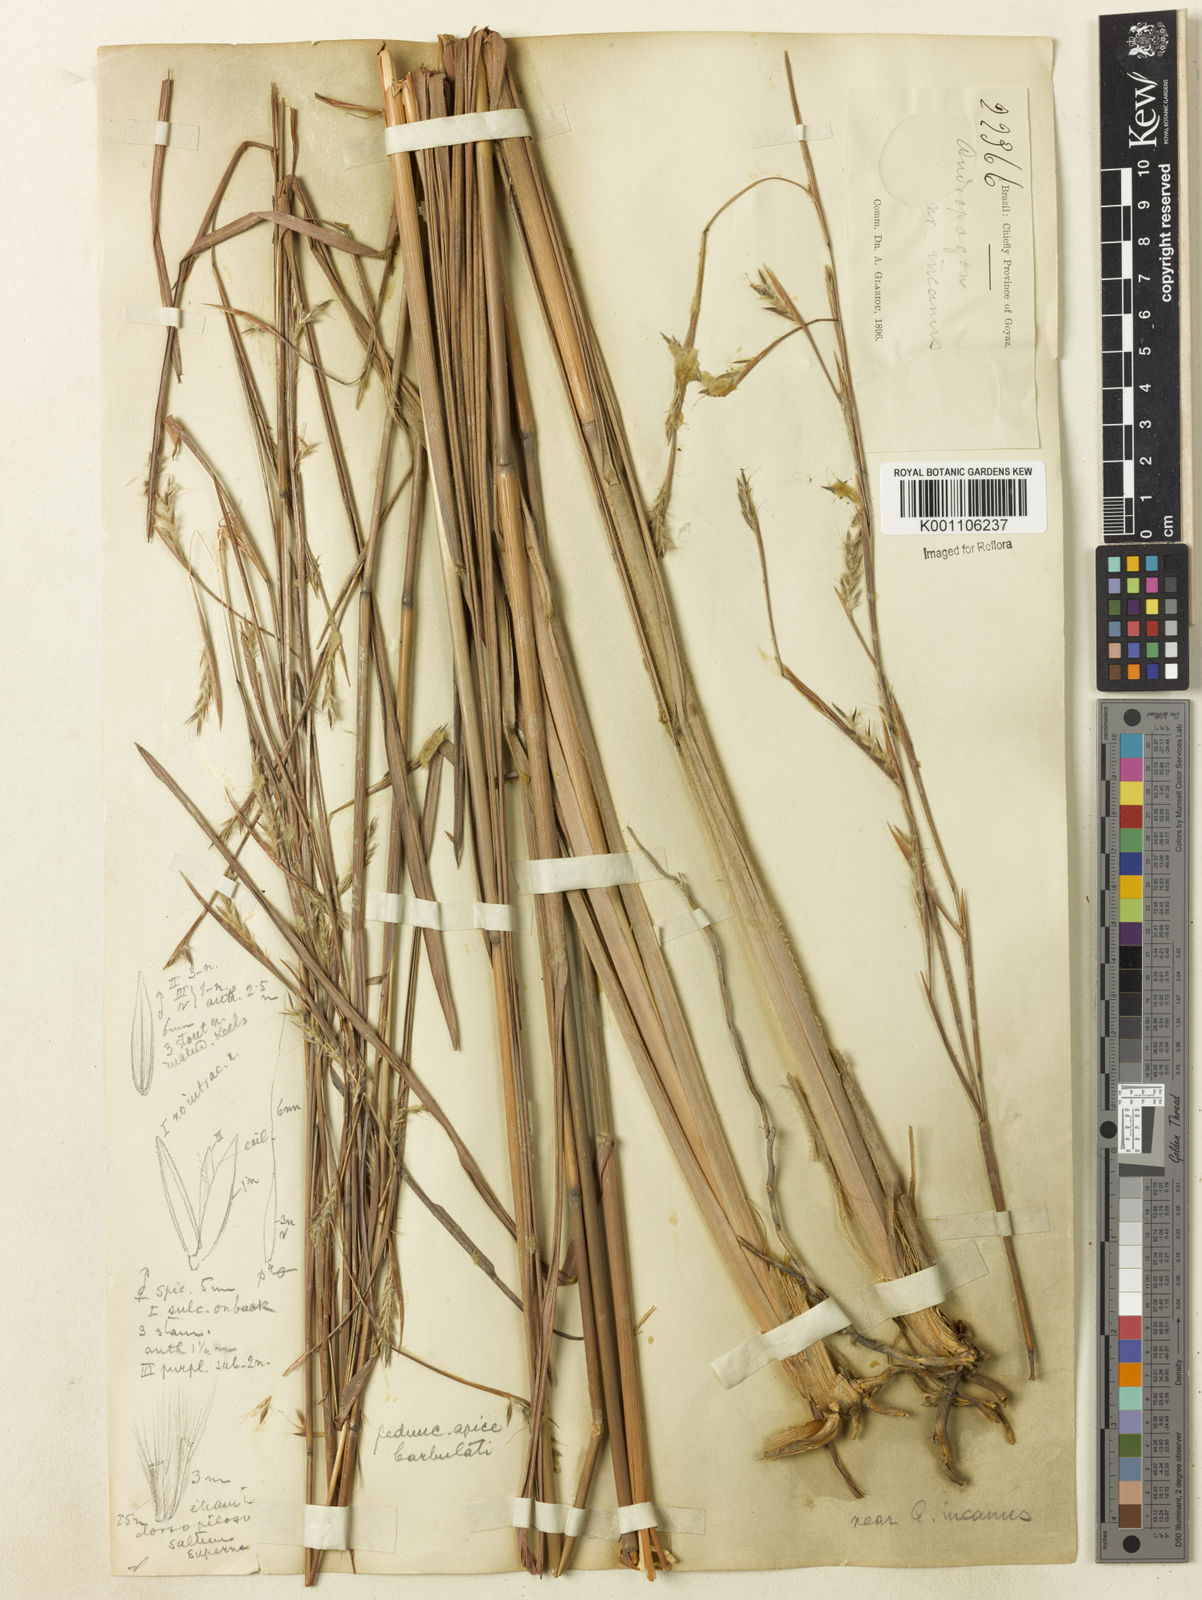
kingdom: Plantae
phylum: Tracheophyta
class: Liliopsida
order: Poales
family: Poaceae
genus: Andropogon
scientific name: Andropogon
